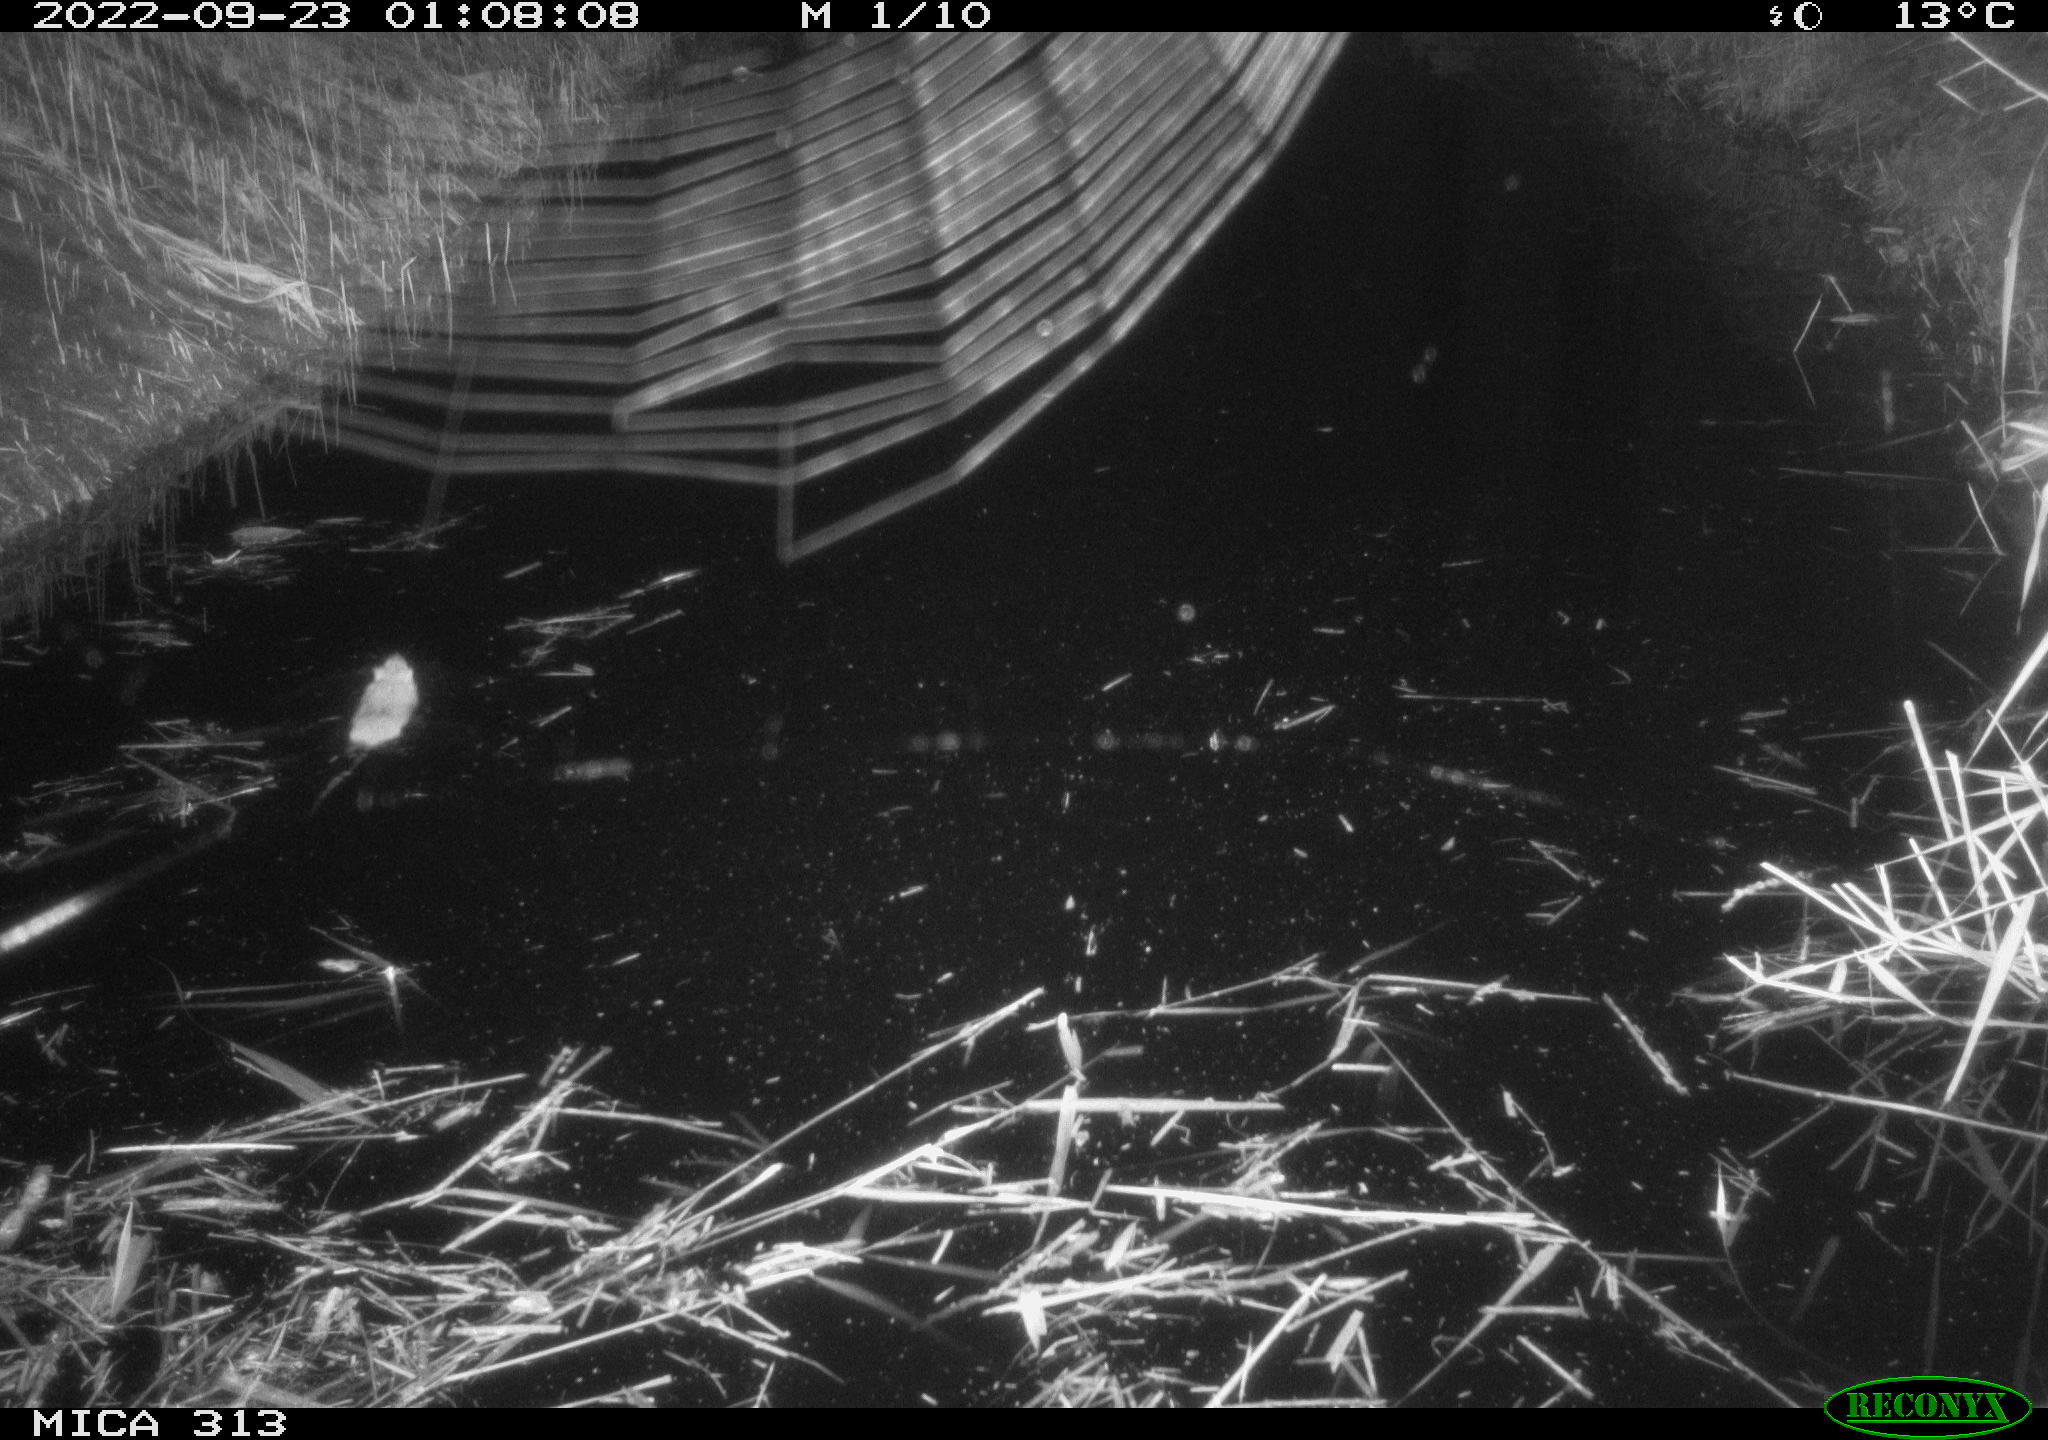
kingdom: Animalia
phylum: Chordata
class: Mammalia
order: Rodentia
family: Muridae
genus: Rattus
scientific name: Rattus norvegicus
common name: Brown rat
